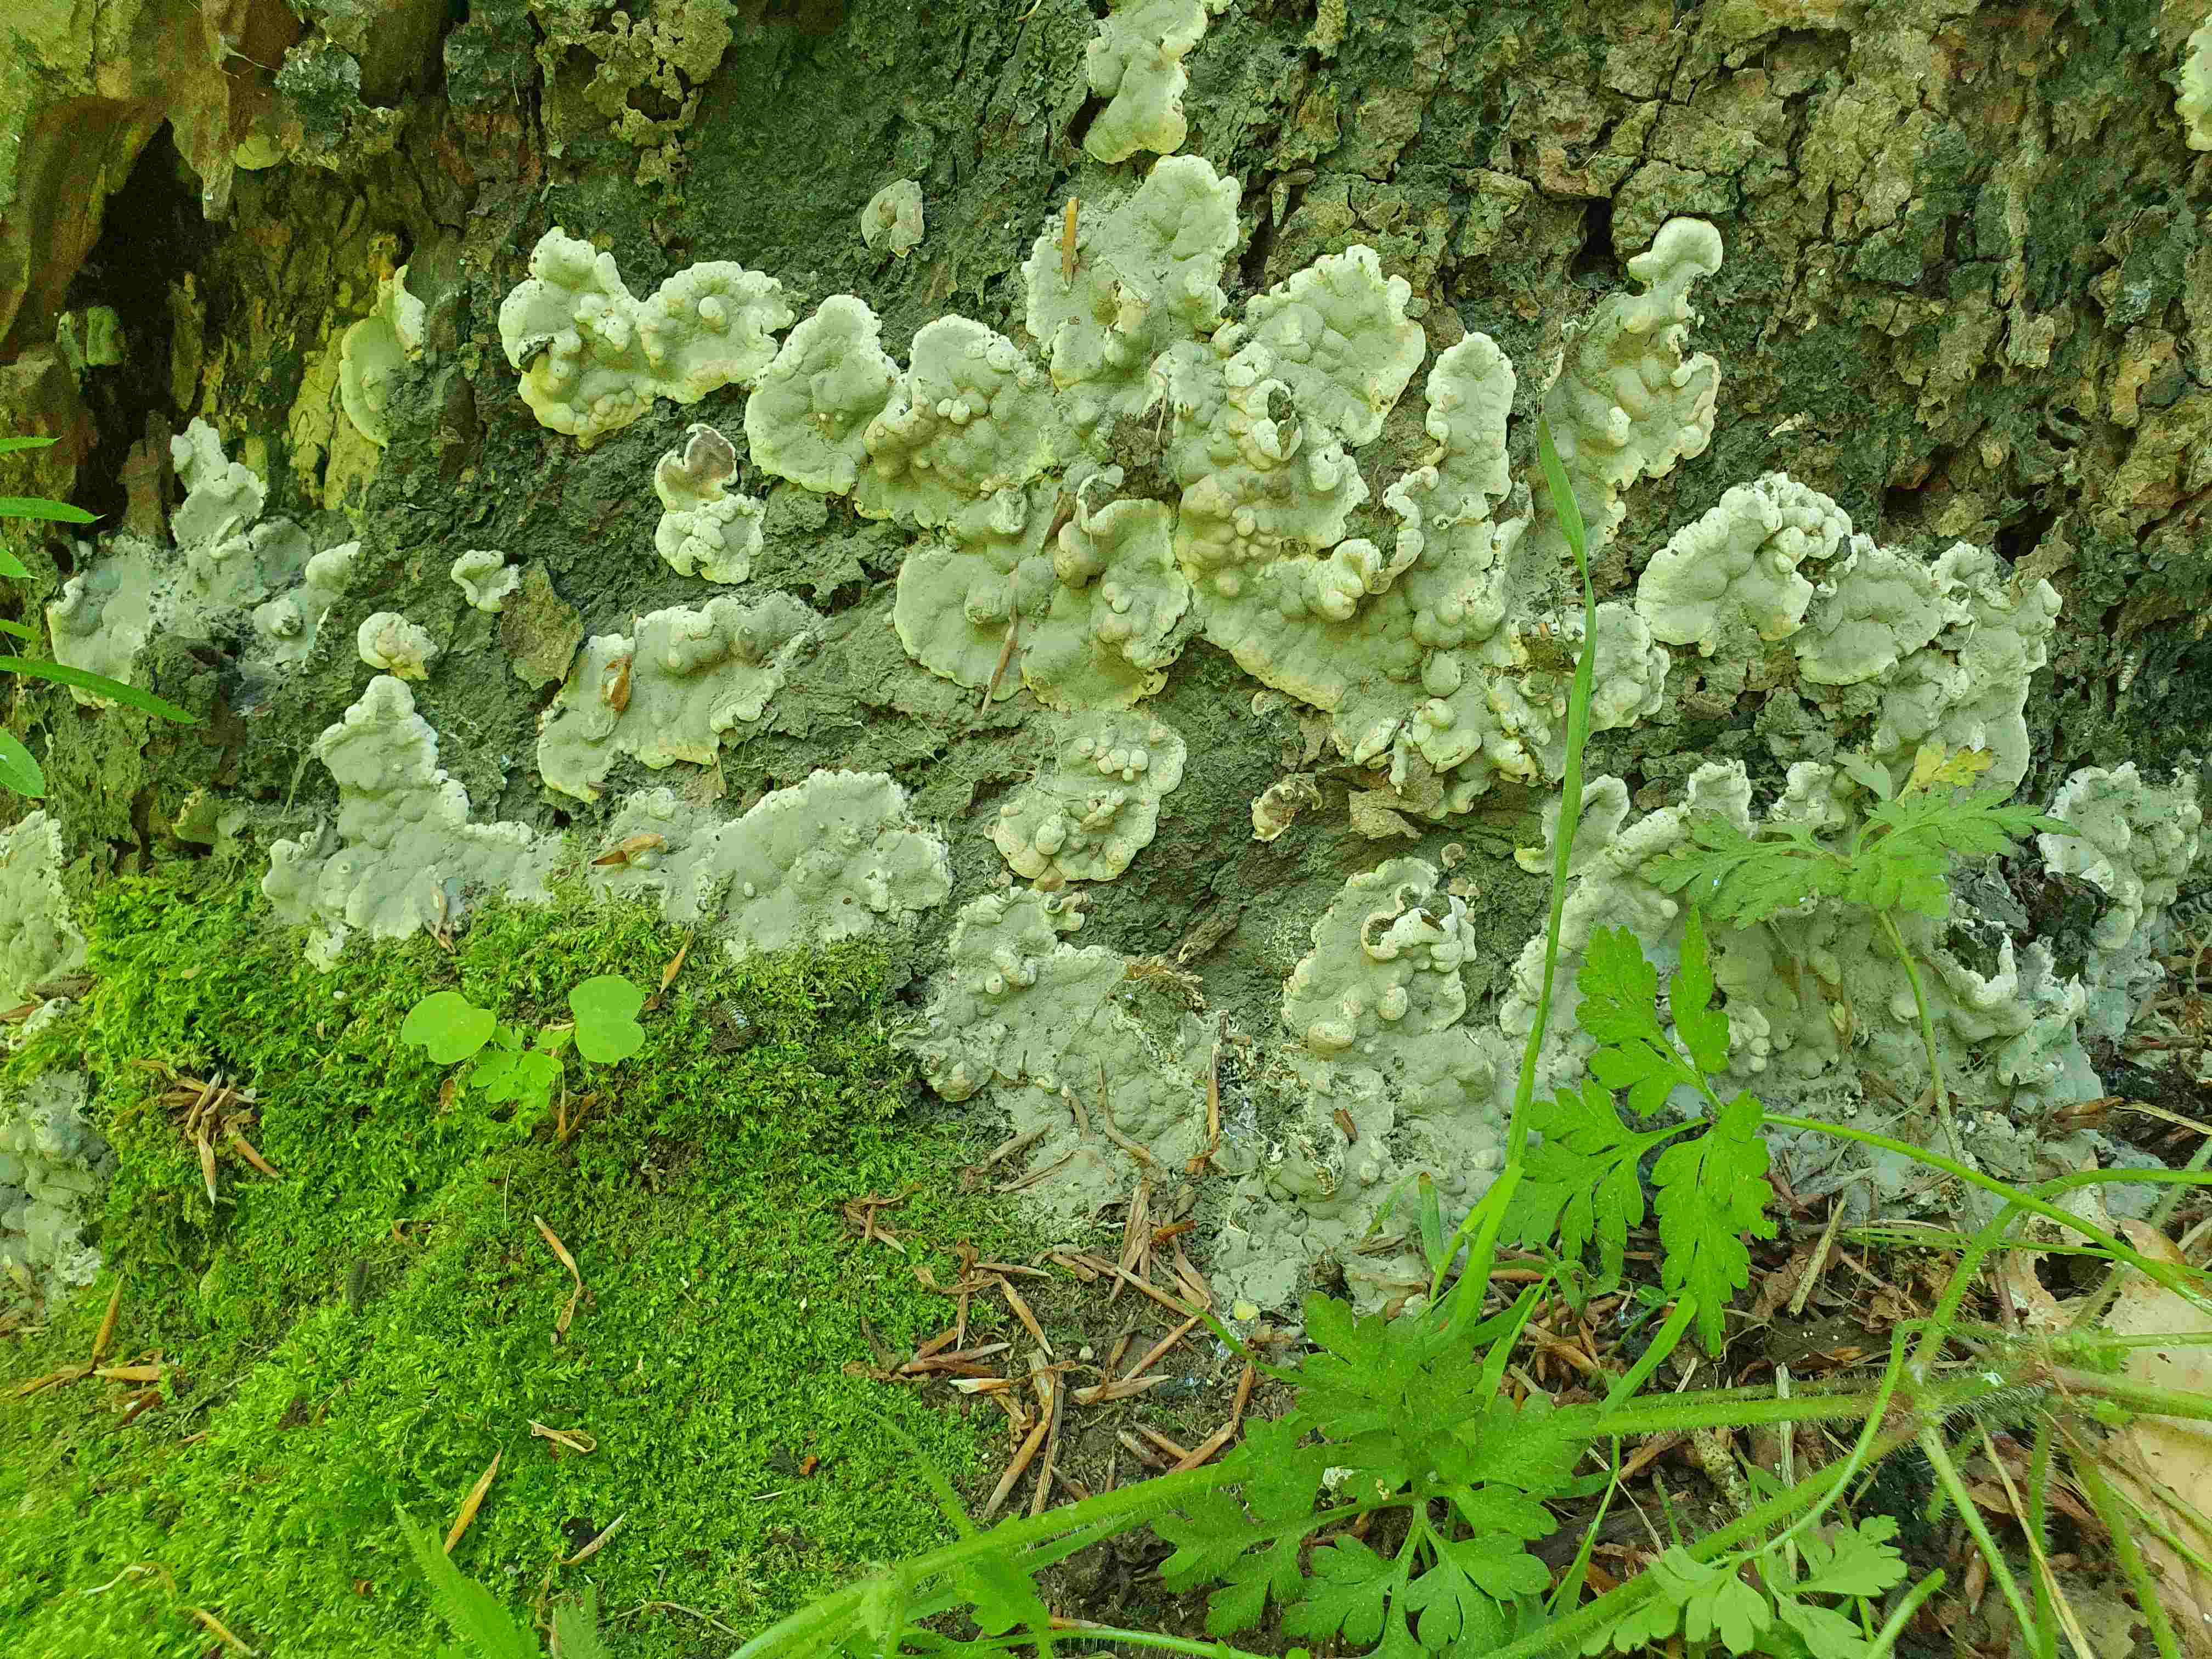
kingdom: Fungi
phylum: Ascomycota
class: Sordariomycetes
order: Xylariales
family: Xylariaceae
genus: Kretzschmaria
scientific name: Kretzschmaria deusta
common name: stor kulsvamp
